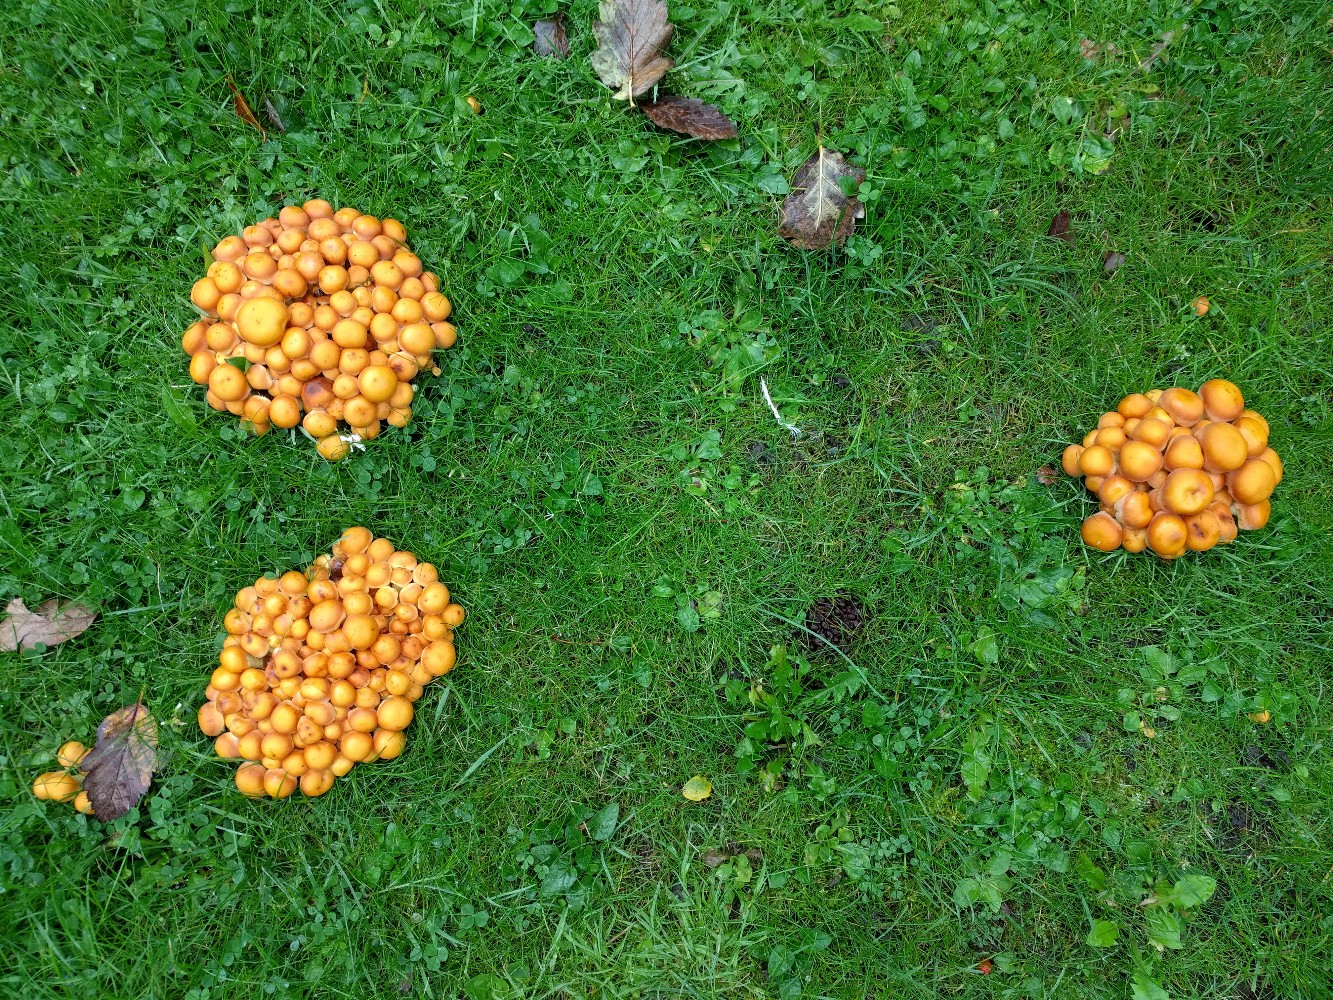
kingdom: Fungi
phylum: Basidiomycota
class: Agaricomycetes
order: Agaricales
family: Strophariaceae
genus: Hypholoma
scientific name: Hypholoma fasciculare
